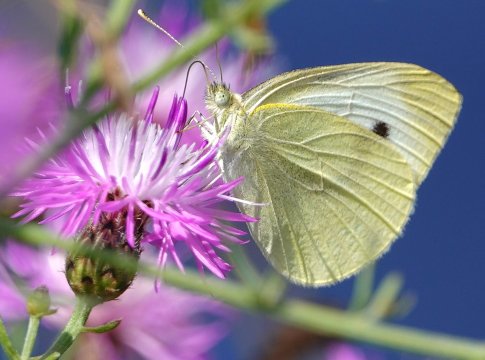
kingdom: Animalia
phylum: Arthropoda
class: Insecta
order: Lepidoptera
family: Pieridae
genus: Pieris
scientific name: Pieris rapae
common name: Cabbage White
